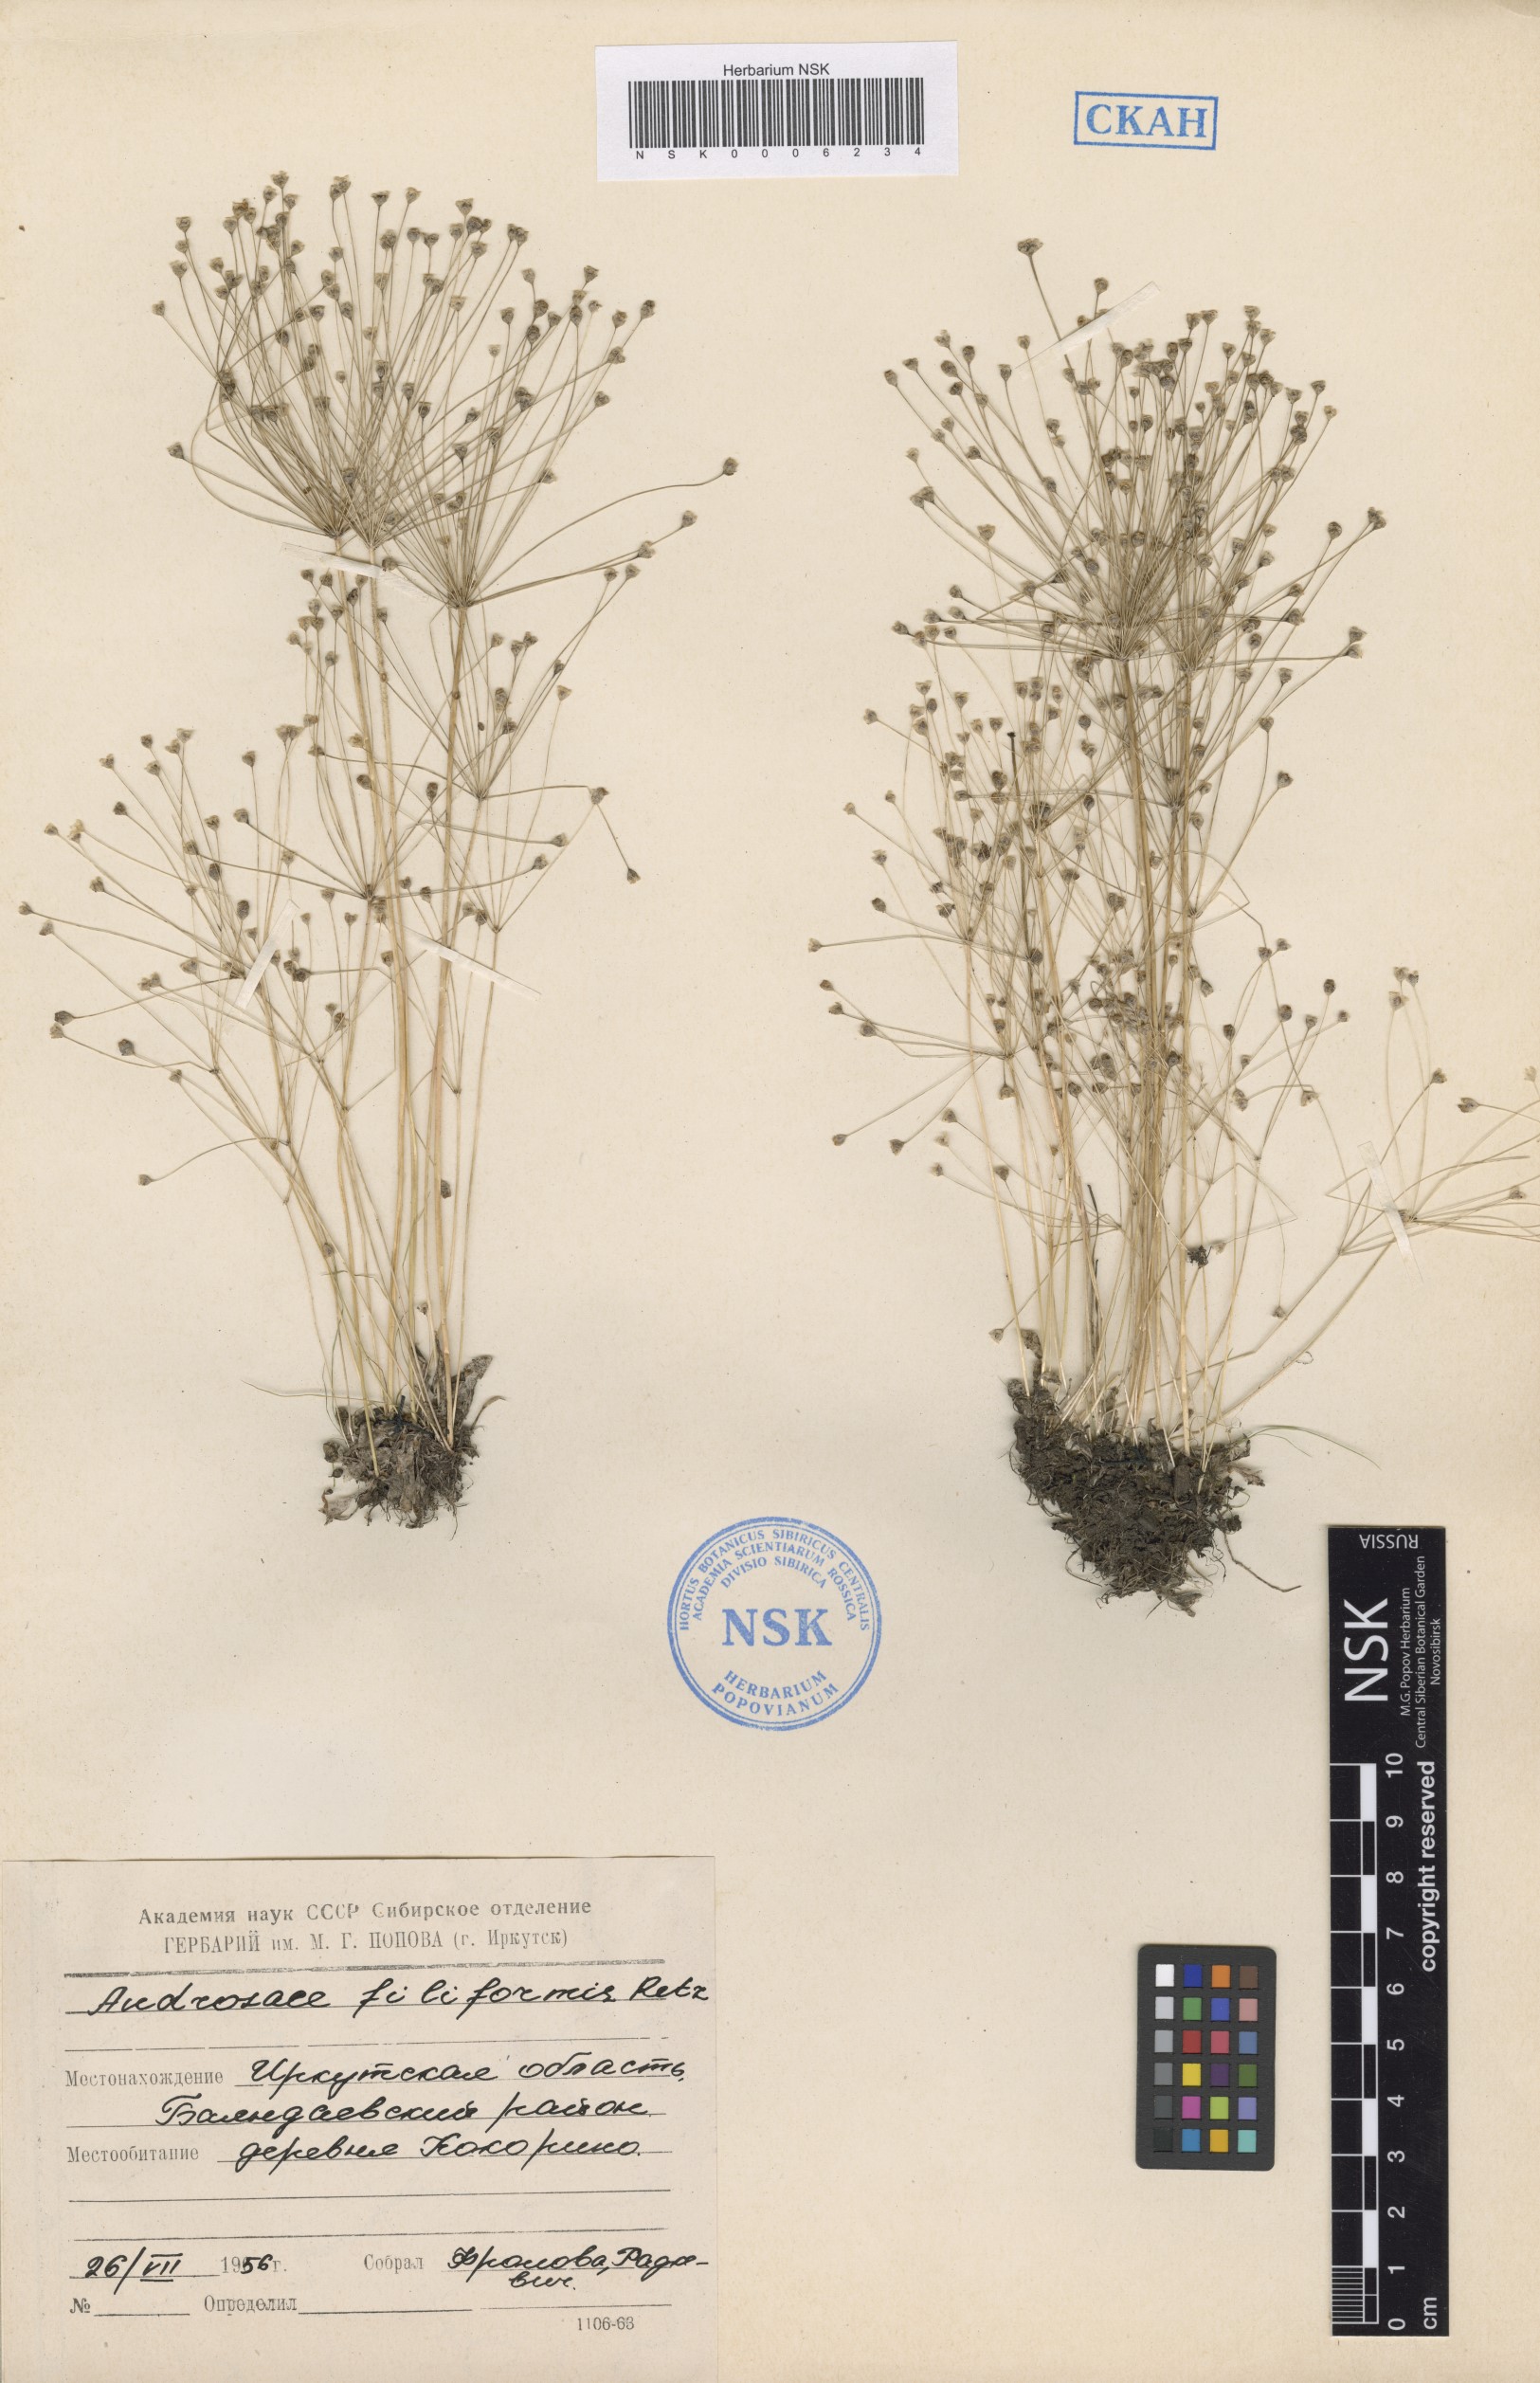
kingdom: Plantae
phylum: Tracheophyta
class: Magnoliopsida
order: Ericales
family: Primulaceae
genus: Androsace
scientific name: Androsace filiformis
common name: Filiform rock jasmine
